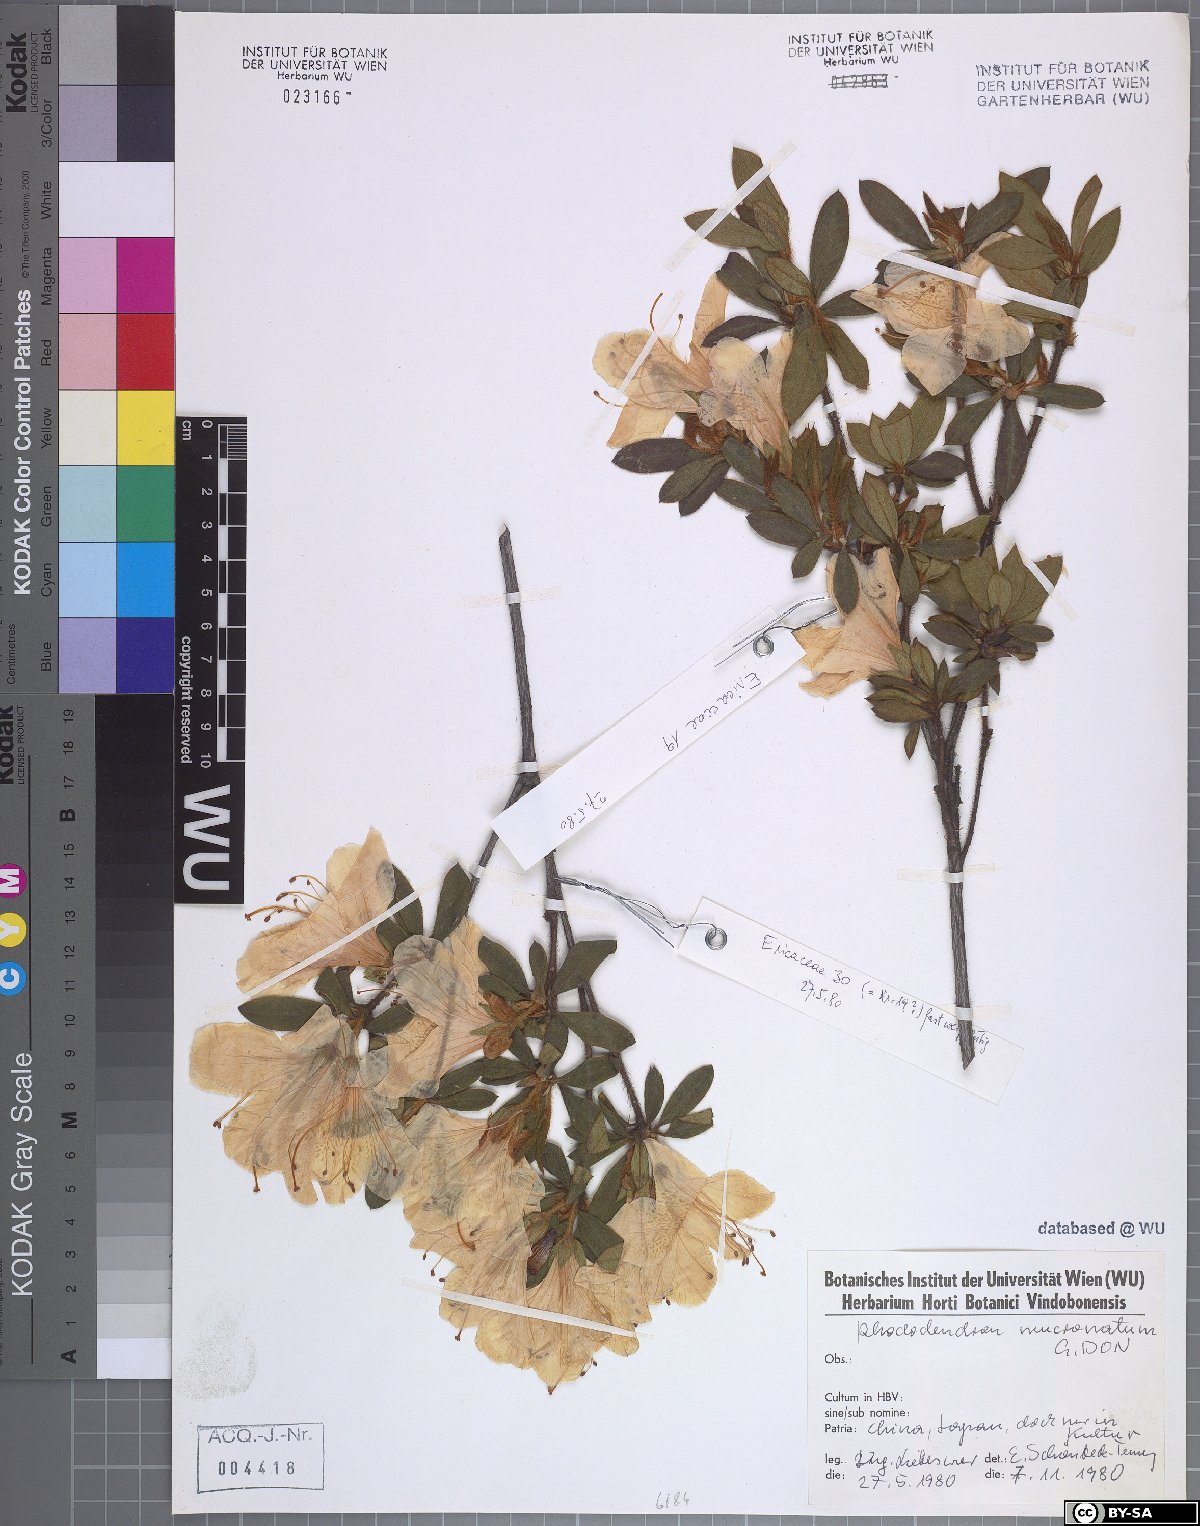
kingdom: Plantae
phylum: Tracheophyta
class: Magnoliopsida
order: Ericales
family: Ericaceae
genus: Rhododendron
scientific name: Rhododendron mucronatum
